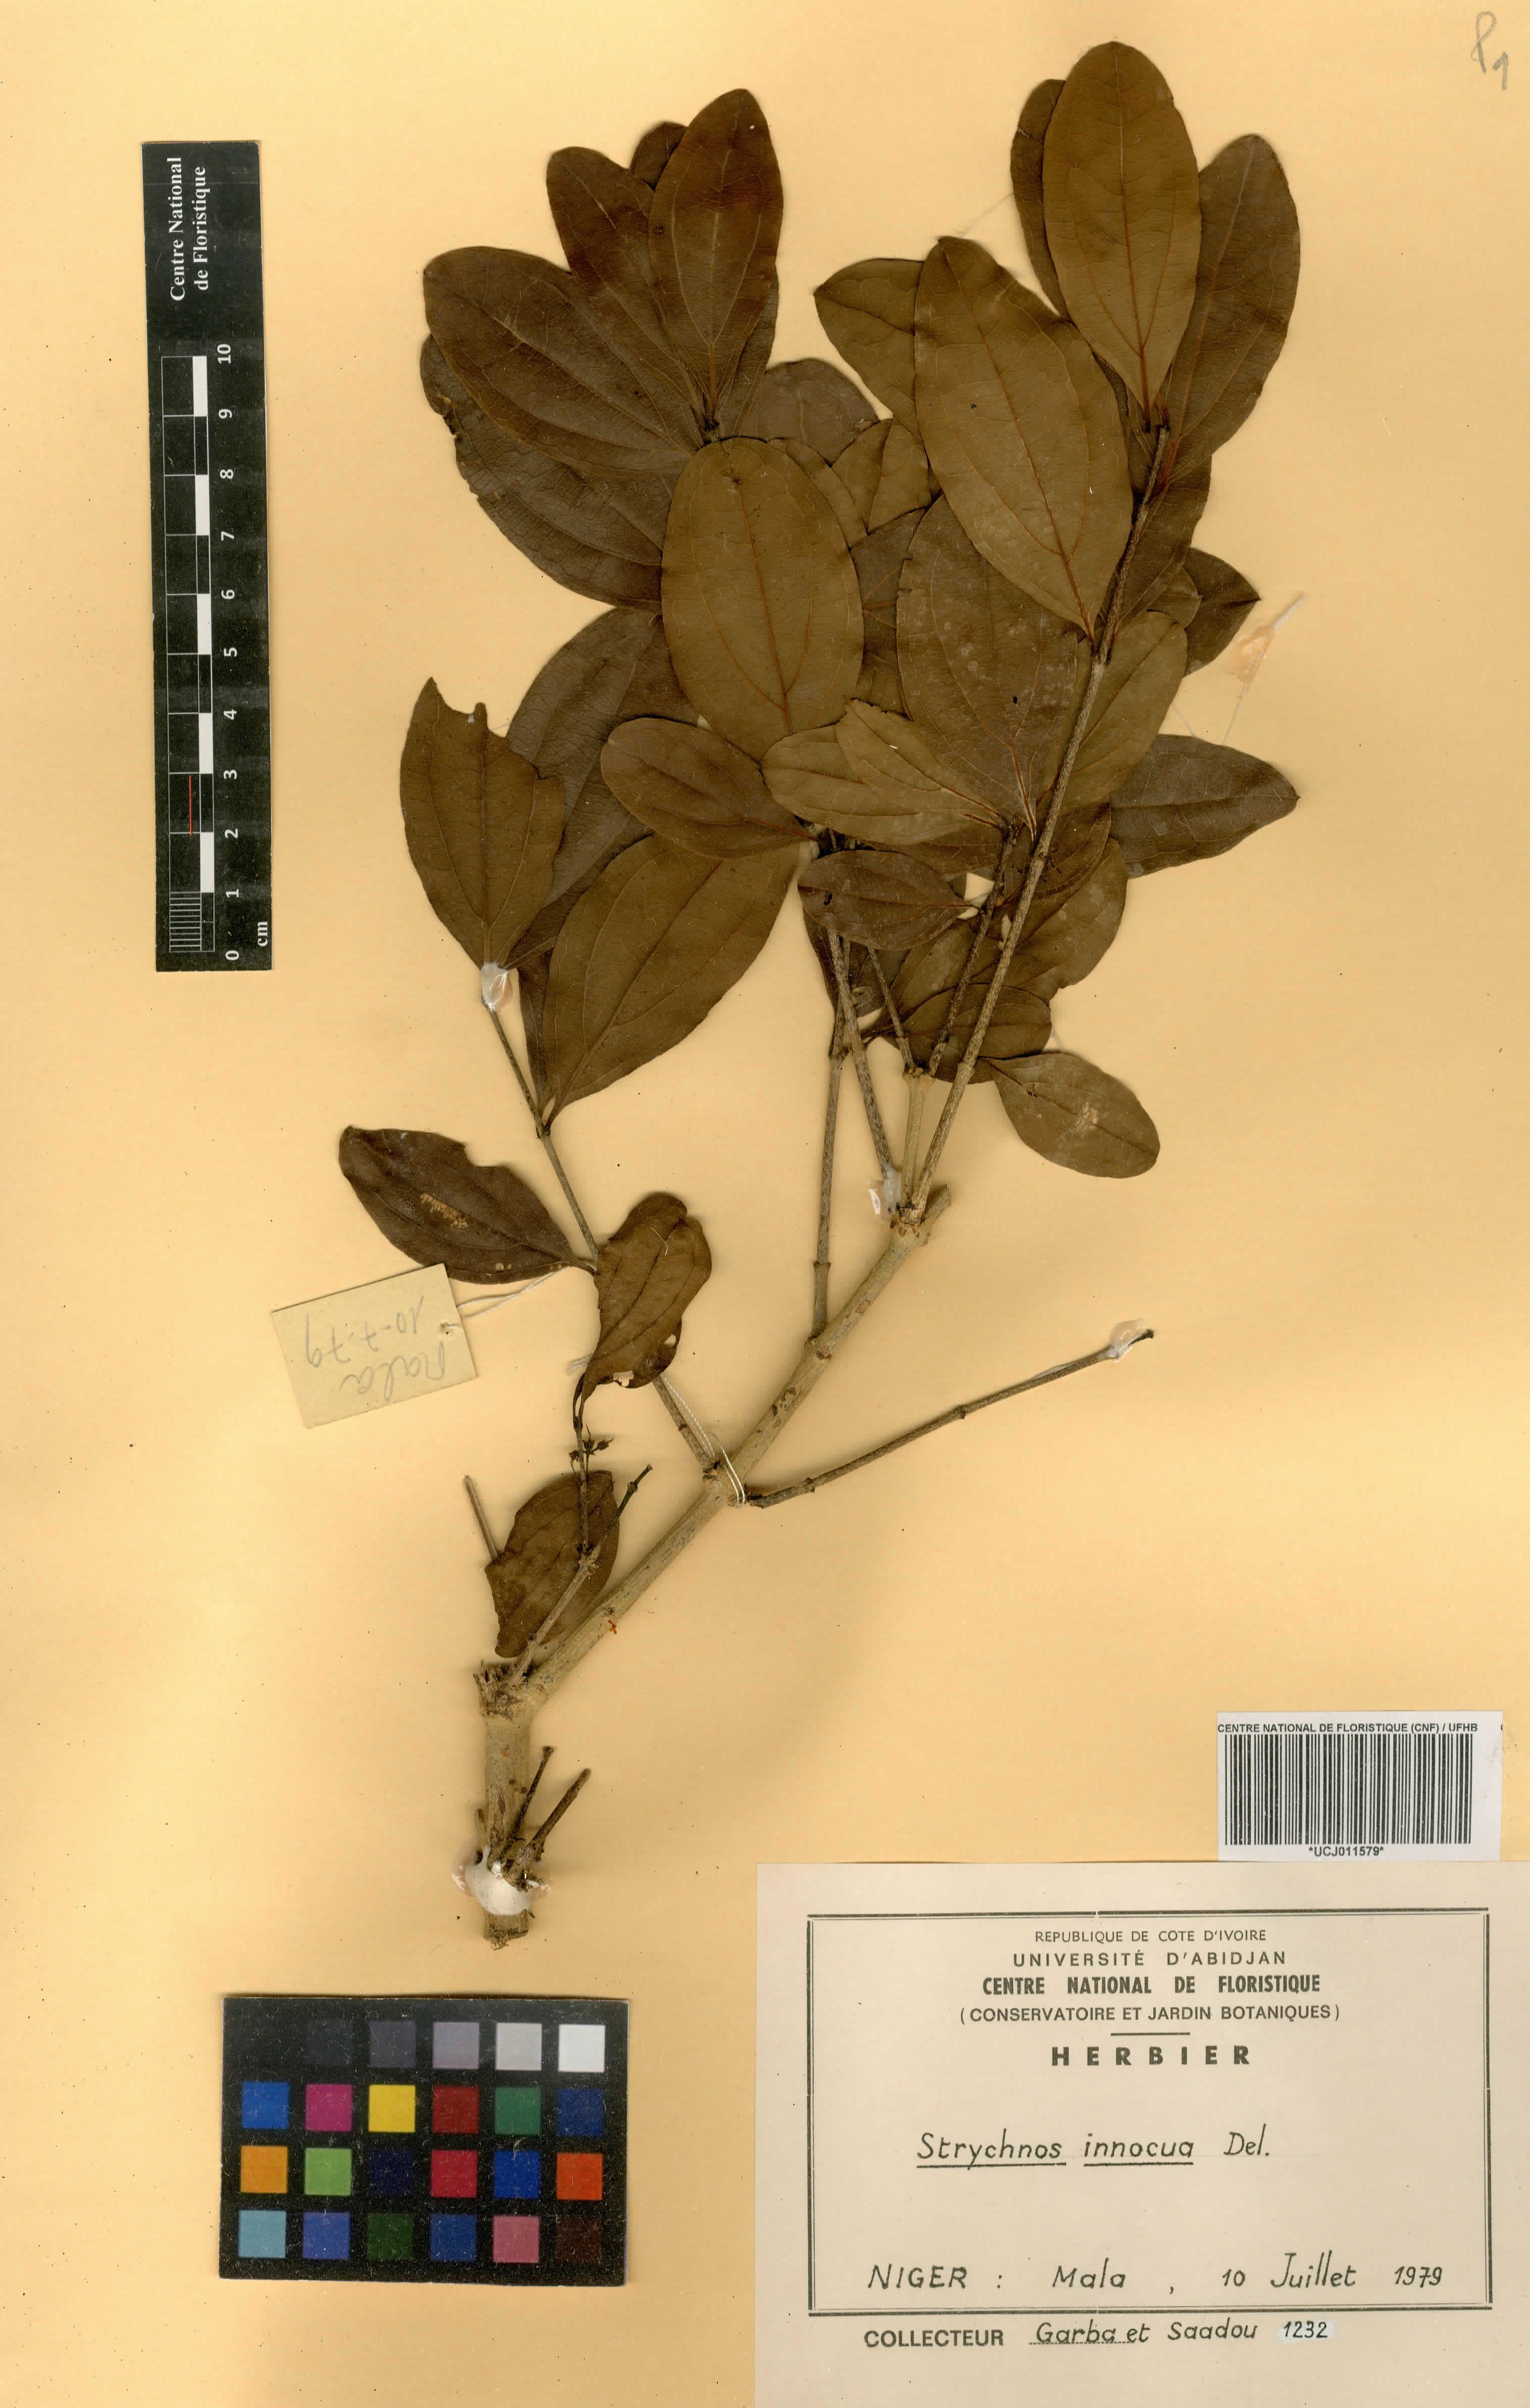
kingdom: Plantae
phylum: Tracheophyta
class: Magnoliopsida
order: Gentianales
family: Loganiaceae
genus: Strychnos
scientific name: Strychnos innocua
